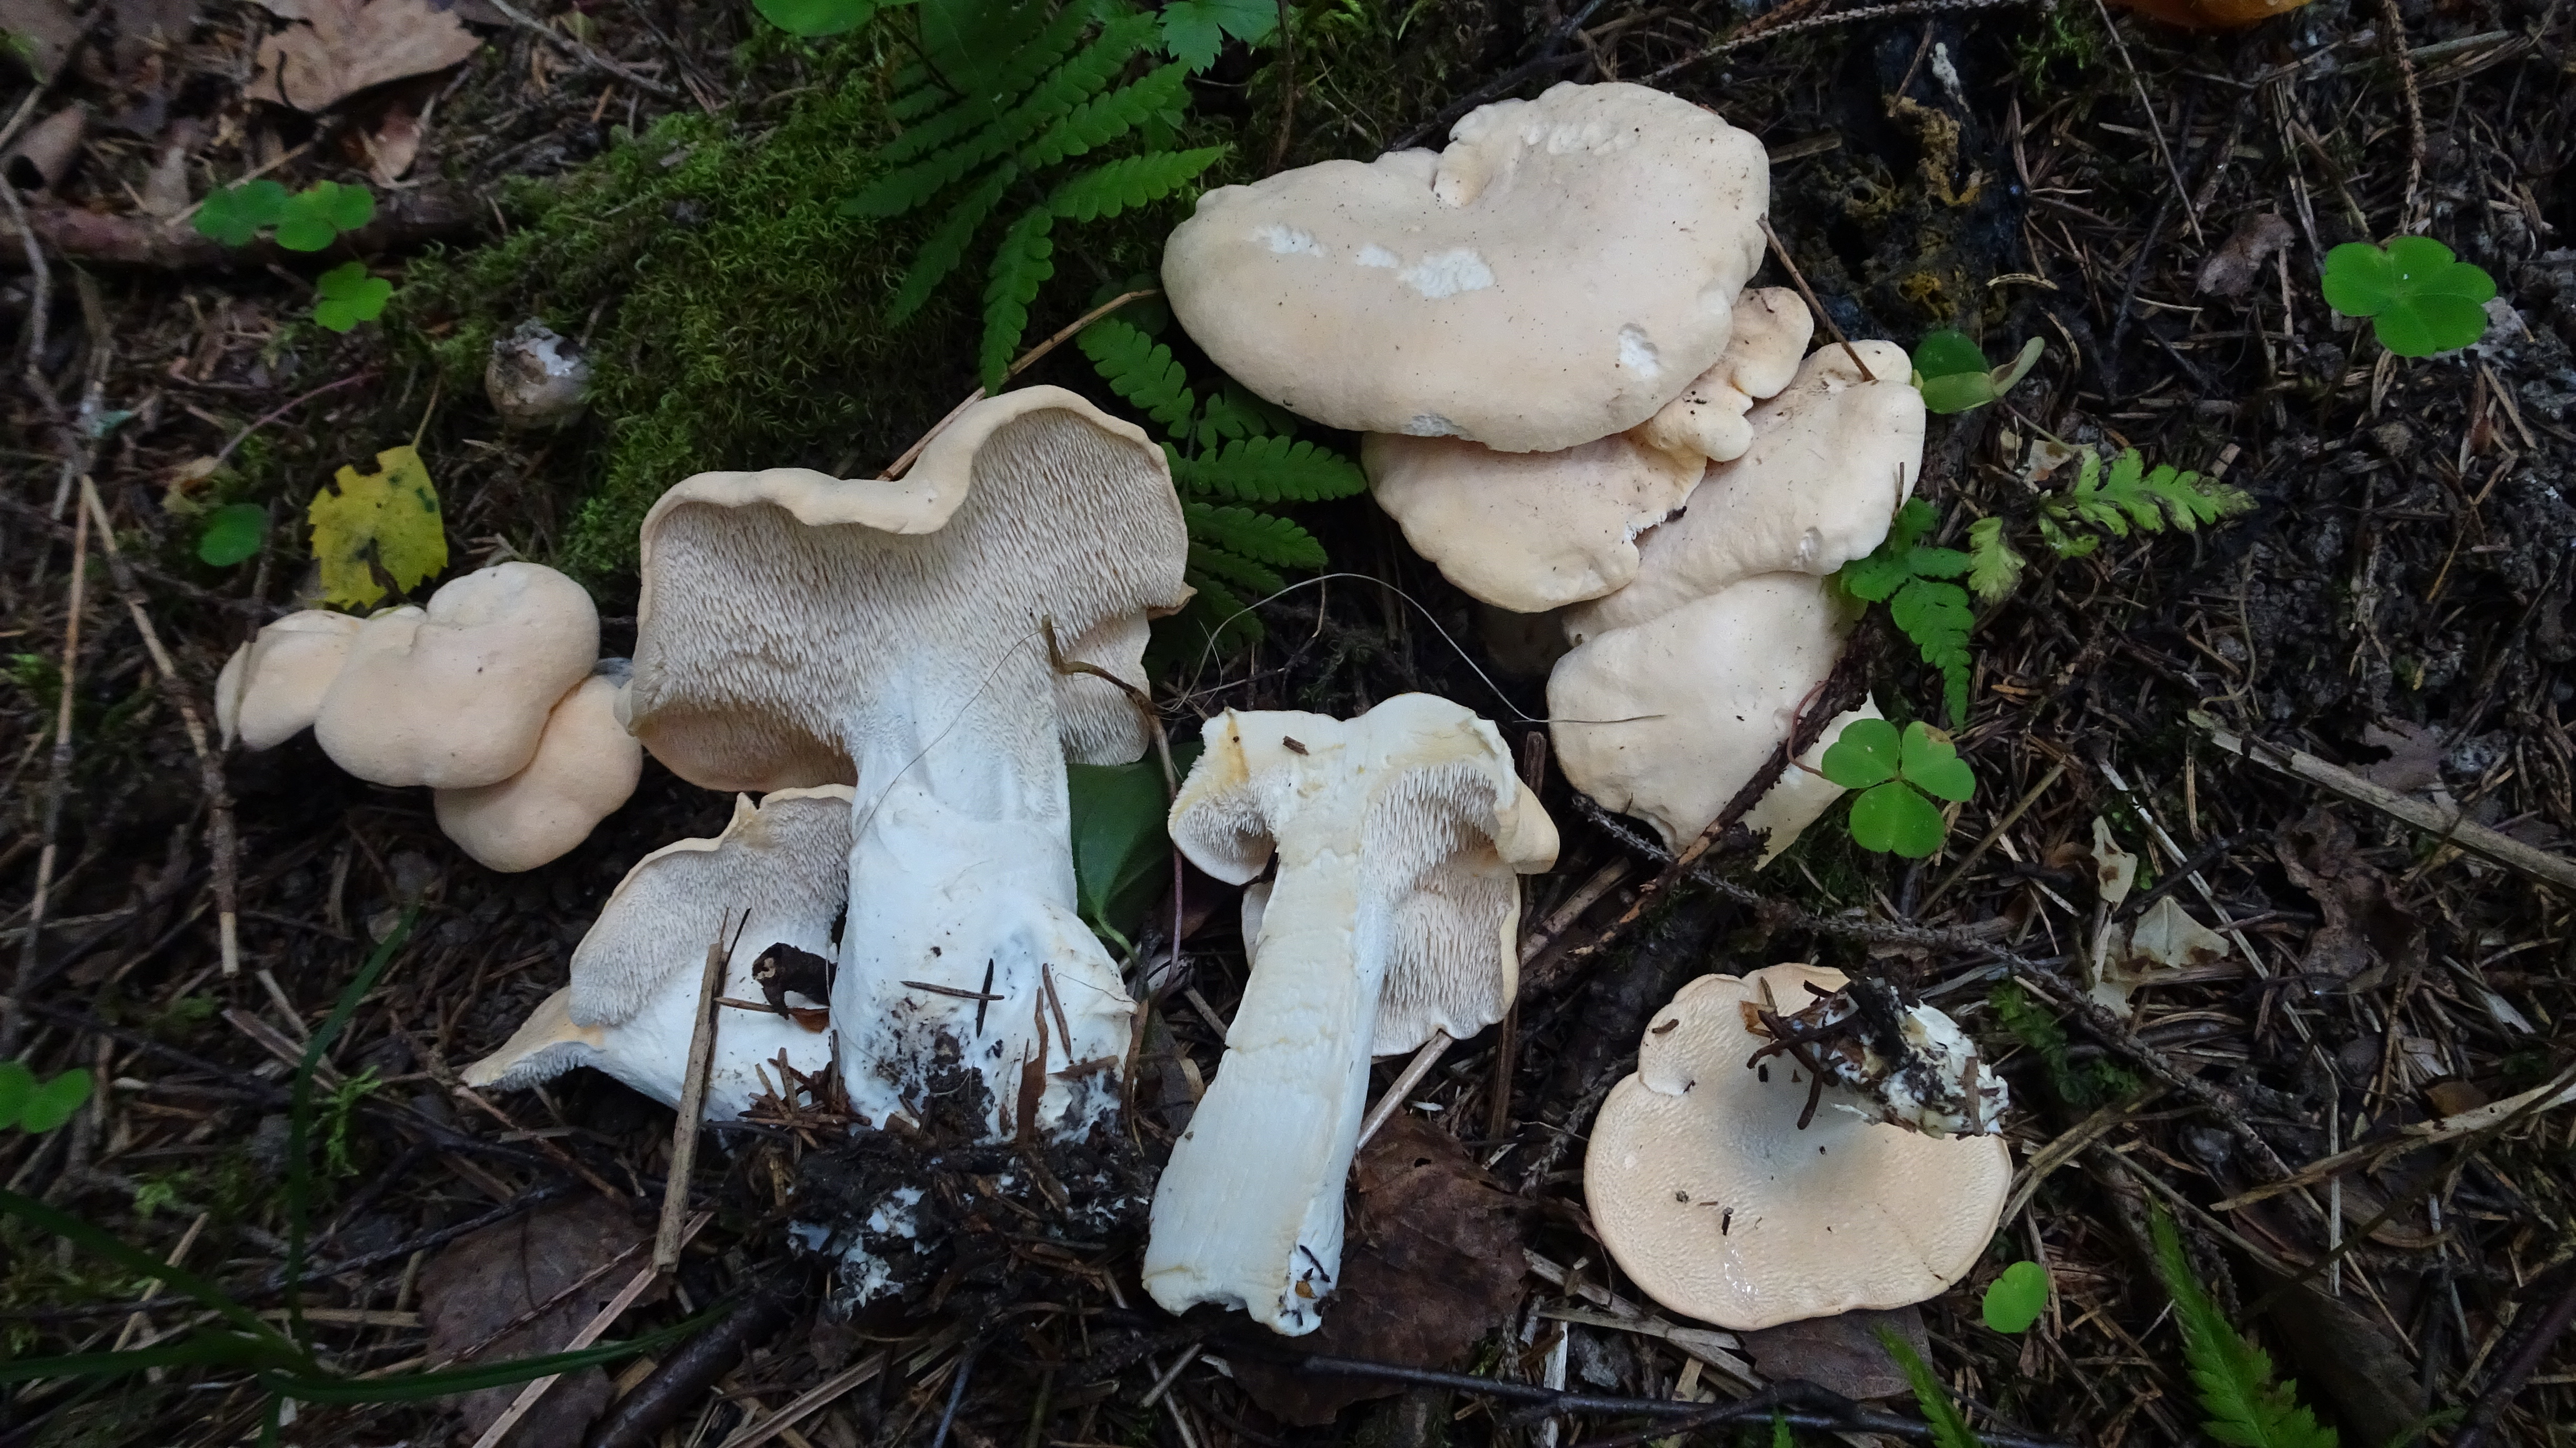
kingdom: Fungi
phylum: Basidiomycota
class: Agaricomycetes
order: Cantharellales
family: Hydnaceae
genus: Hydnum
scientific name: Hydnum repandum
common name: Wood hedgehog
